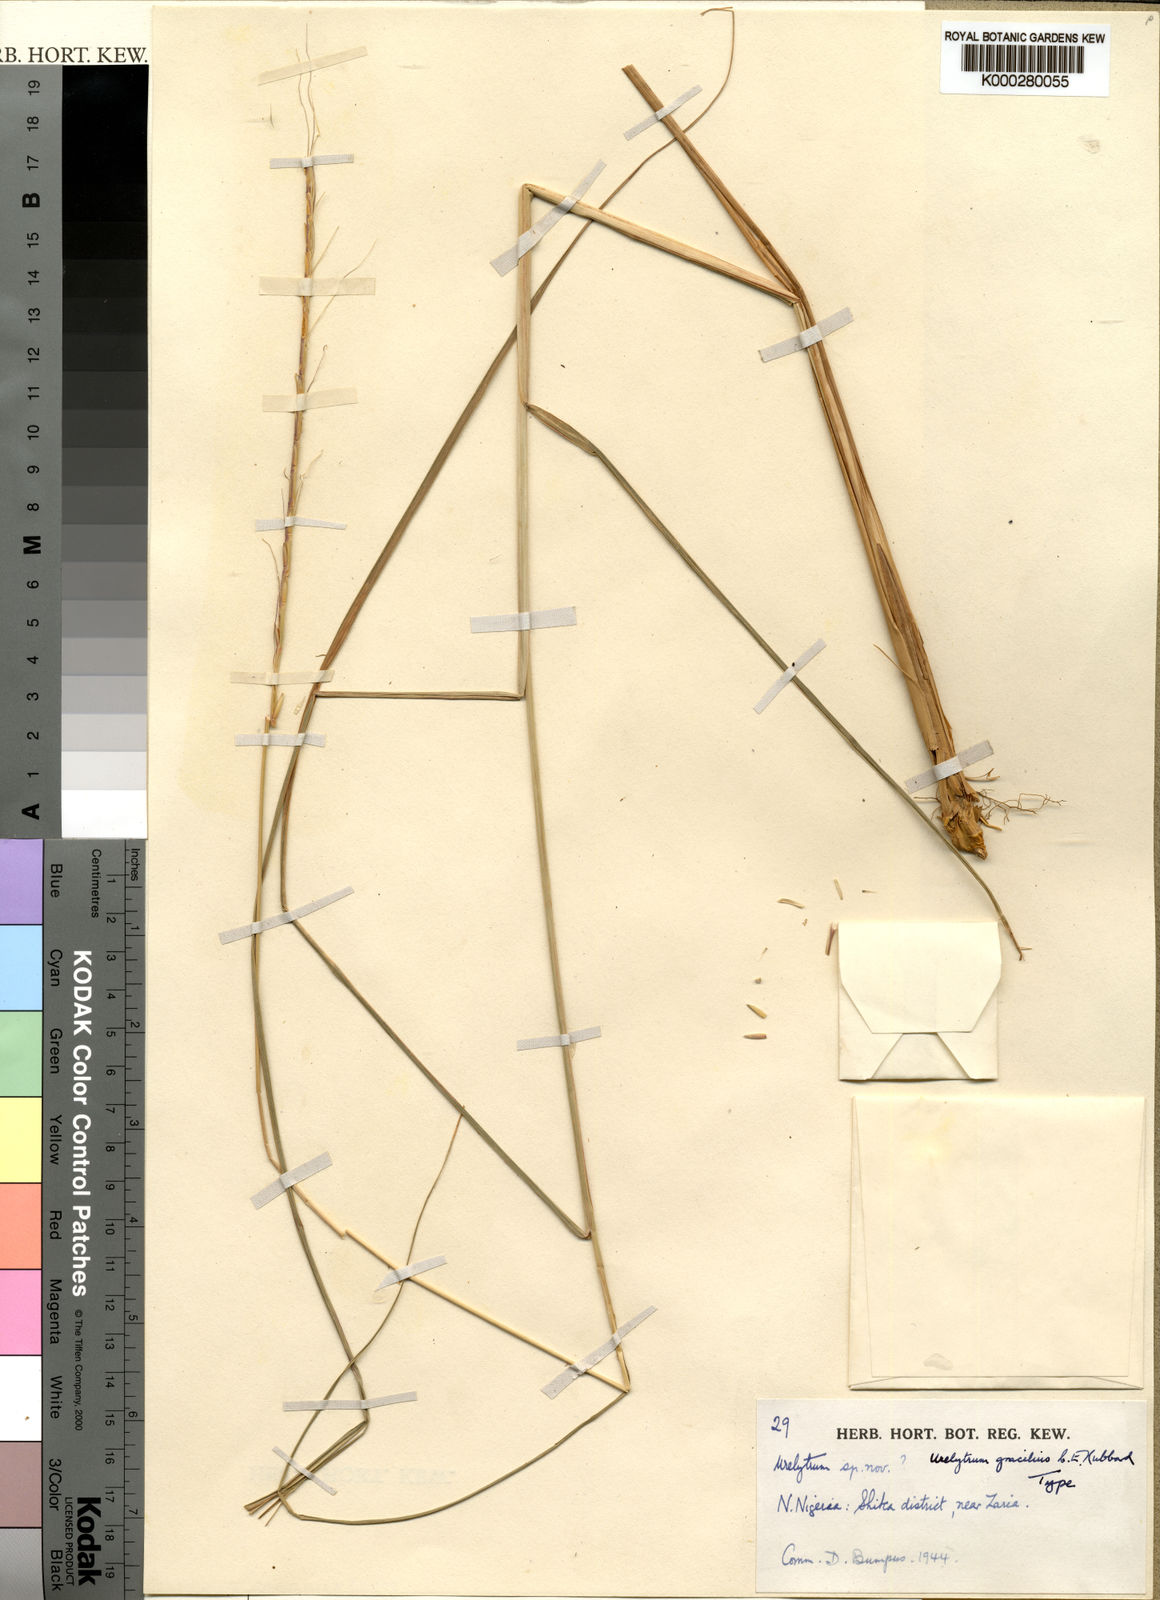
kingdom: Plantae
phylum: Tracheophyta
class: Liliopsida
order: Poales
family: Poaceae
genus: Urelytrum
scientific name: Urelytrum agropyroides
